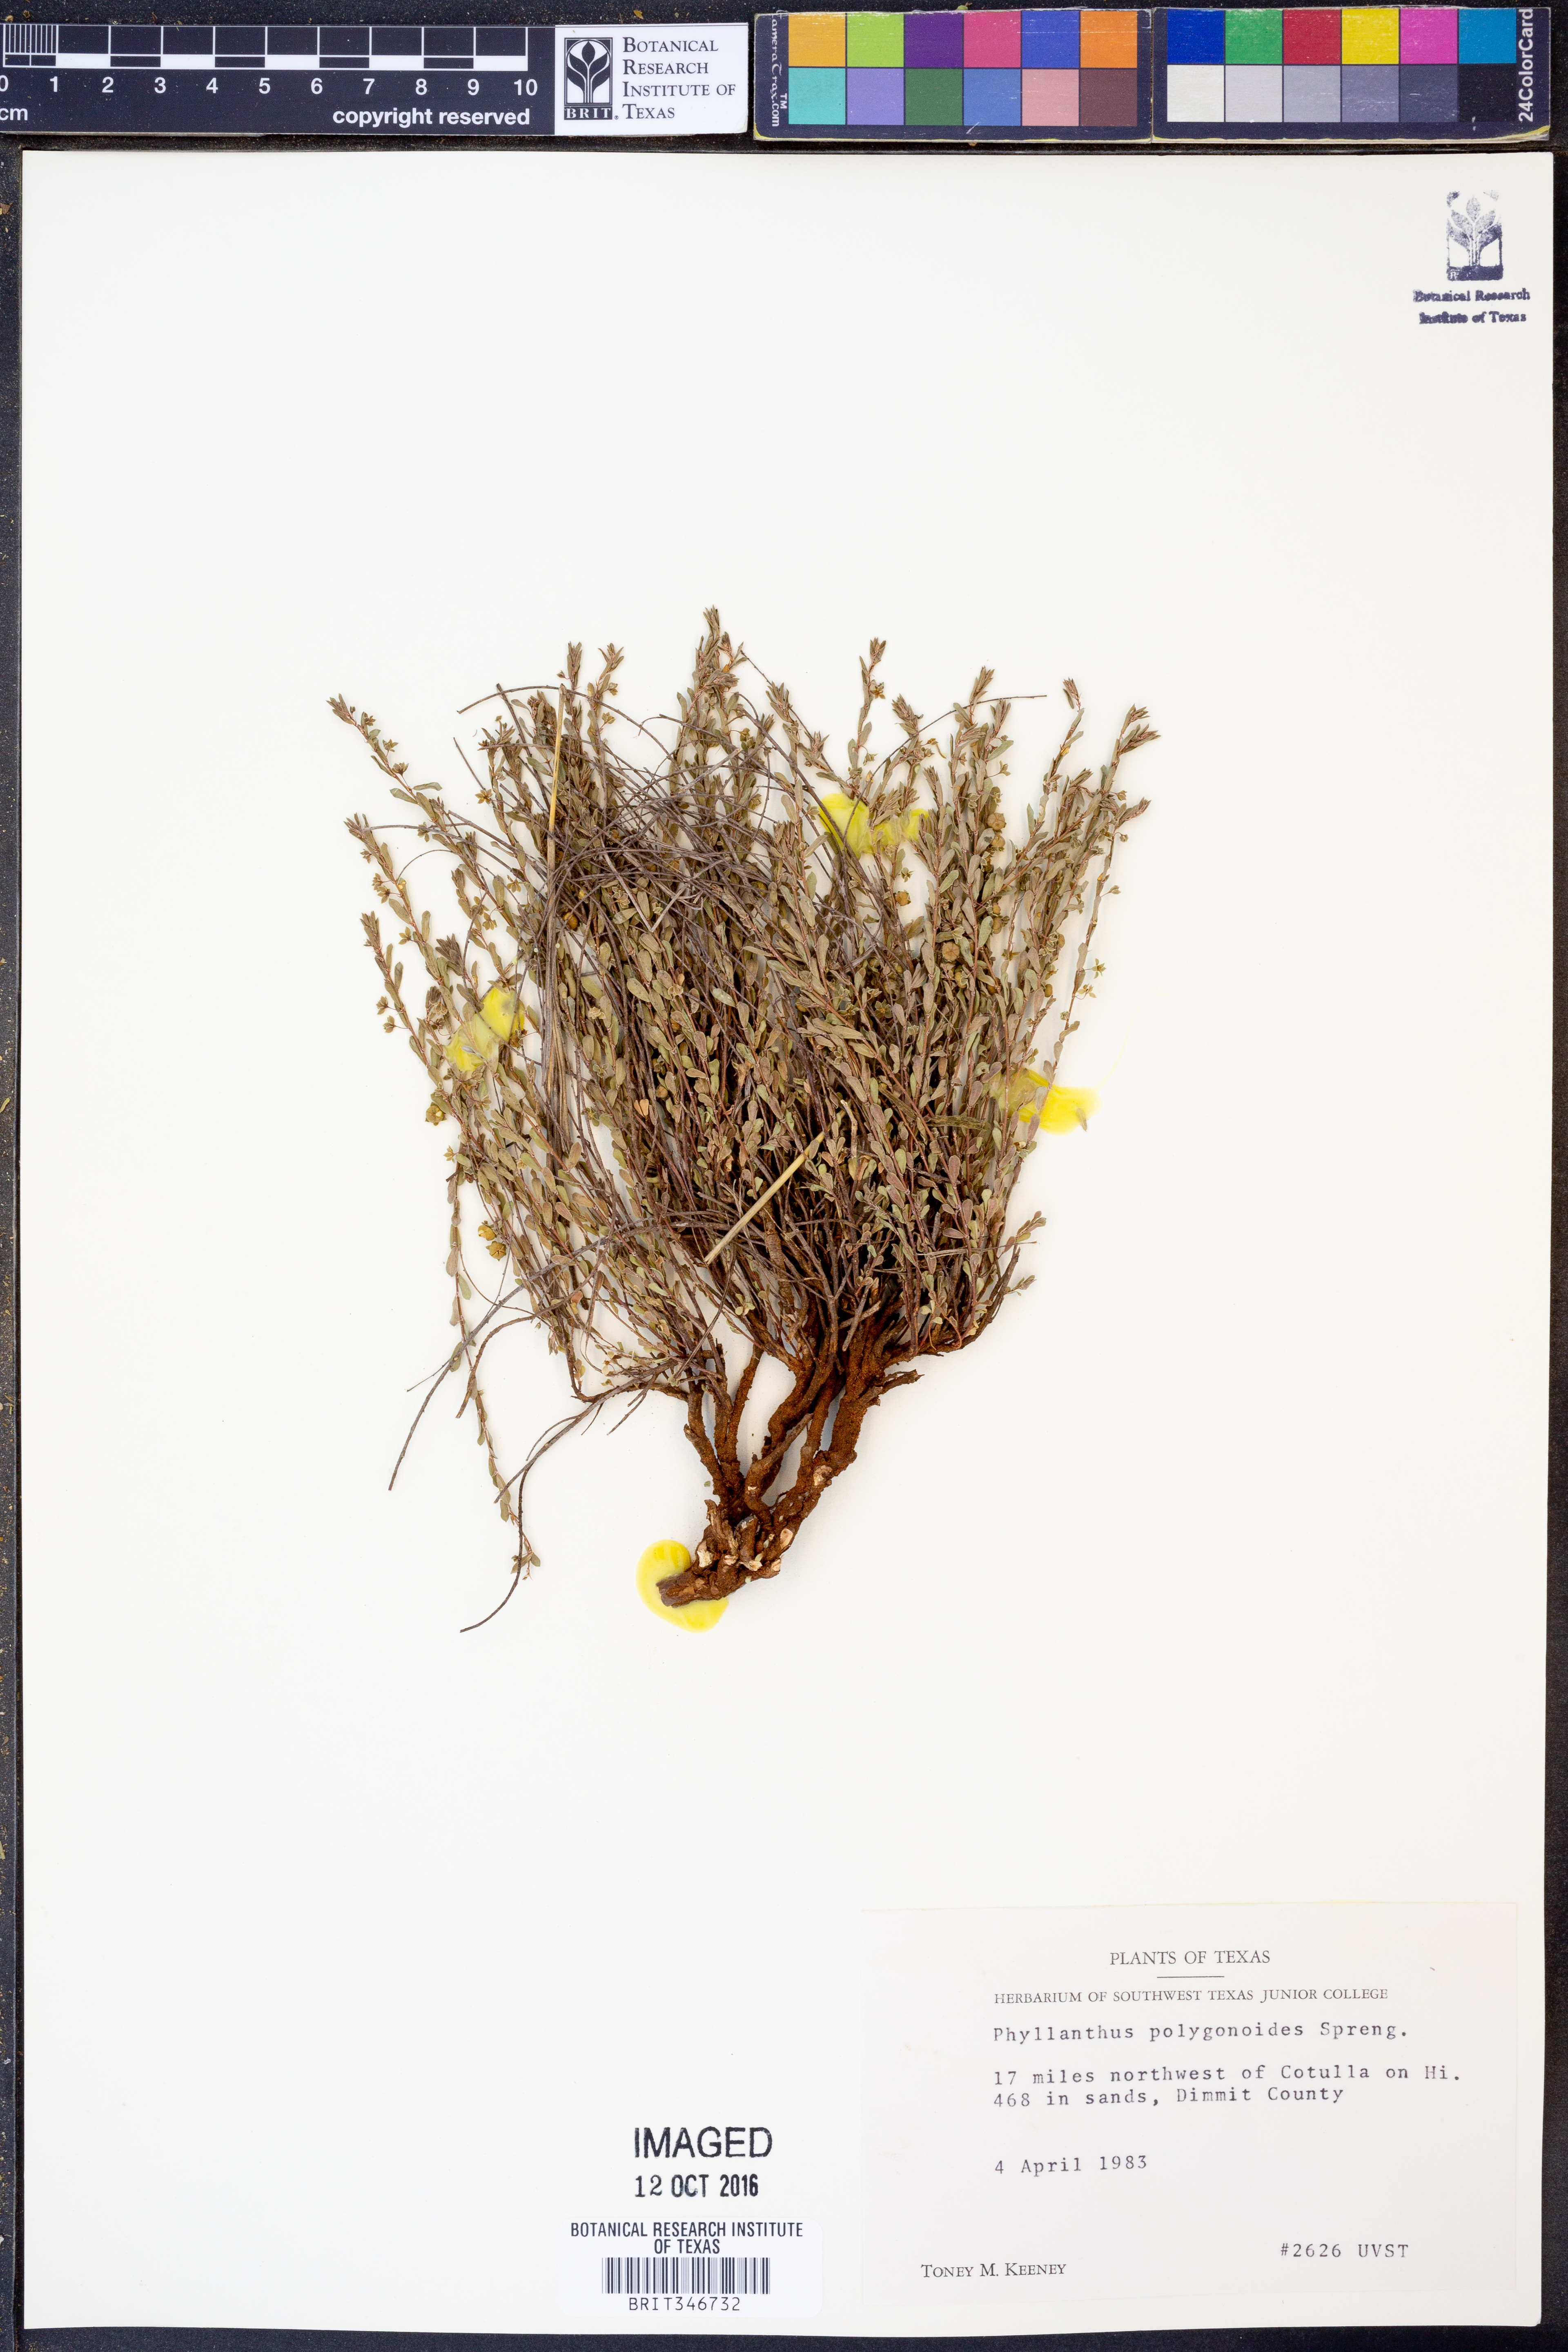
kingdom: Plantae
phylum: Tracheophyta
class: Magnoliopsida
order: Malpighiales
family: Phyllanthaceae
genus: Phyllanthus
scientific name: Phyllanthus polygonoides
